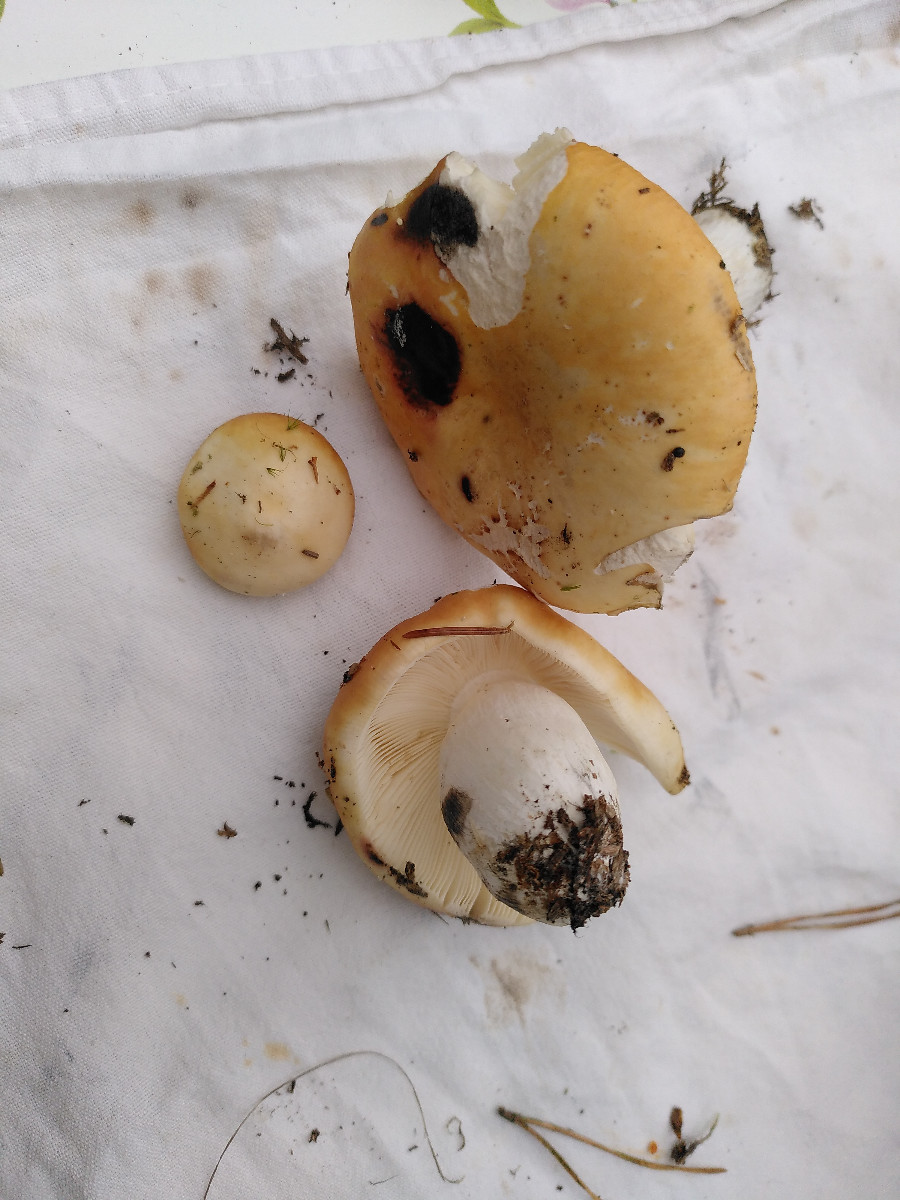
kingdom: Fungi
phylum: Basidiomycota
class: Agaricomycetes
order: Russulales
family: Russulaceae
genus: Russula
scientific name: Russula decolorans
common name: afblegende skørhat
